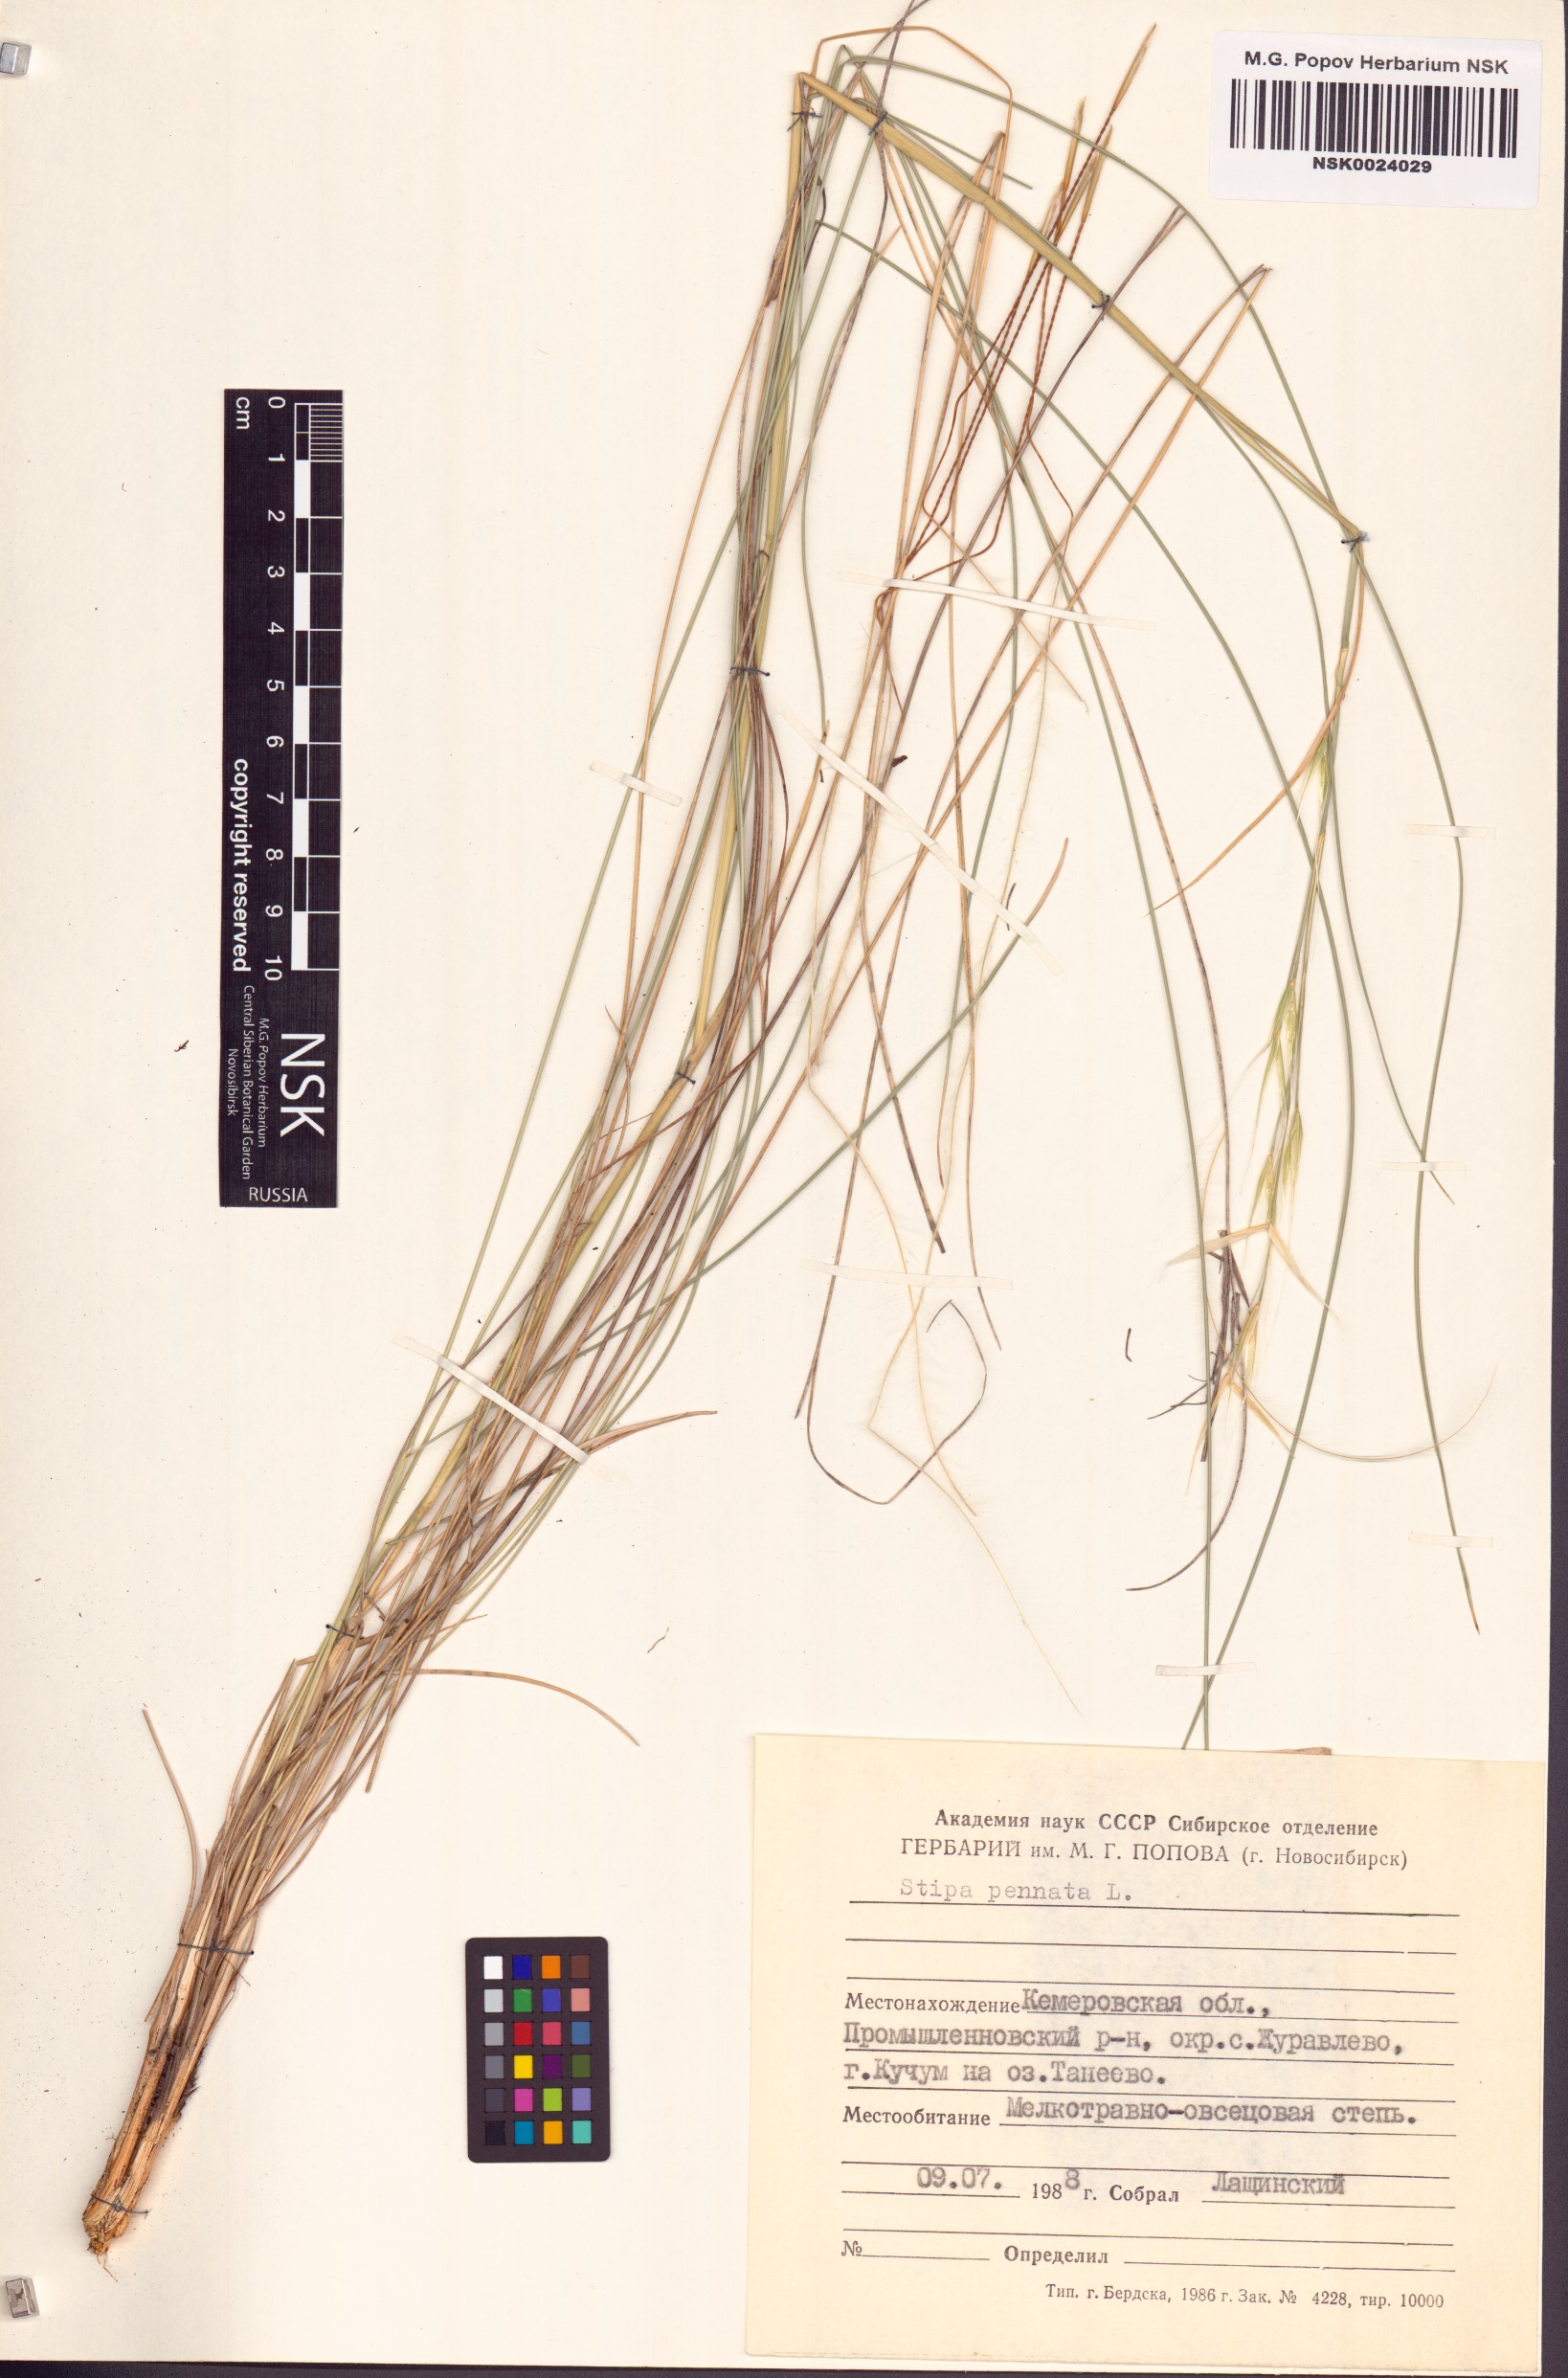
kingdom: Plantae
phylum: Tracheophyta
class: Liliopsida
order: Poales
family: Poaceae
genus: Stipa
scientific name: Stipa pennata
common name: European feather grass
